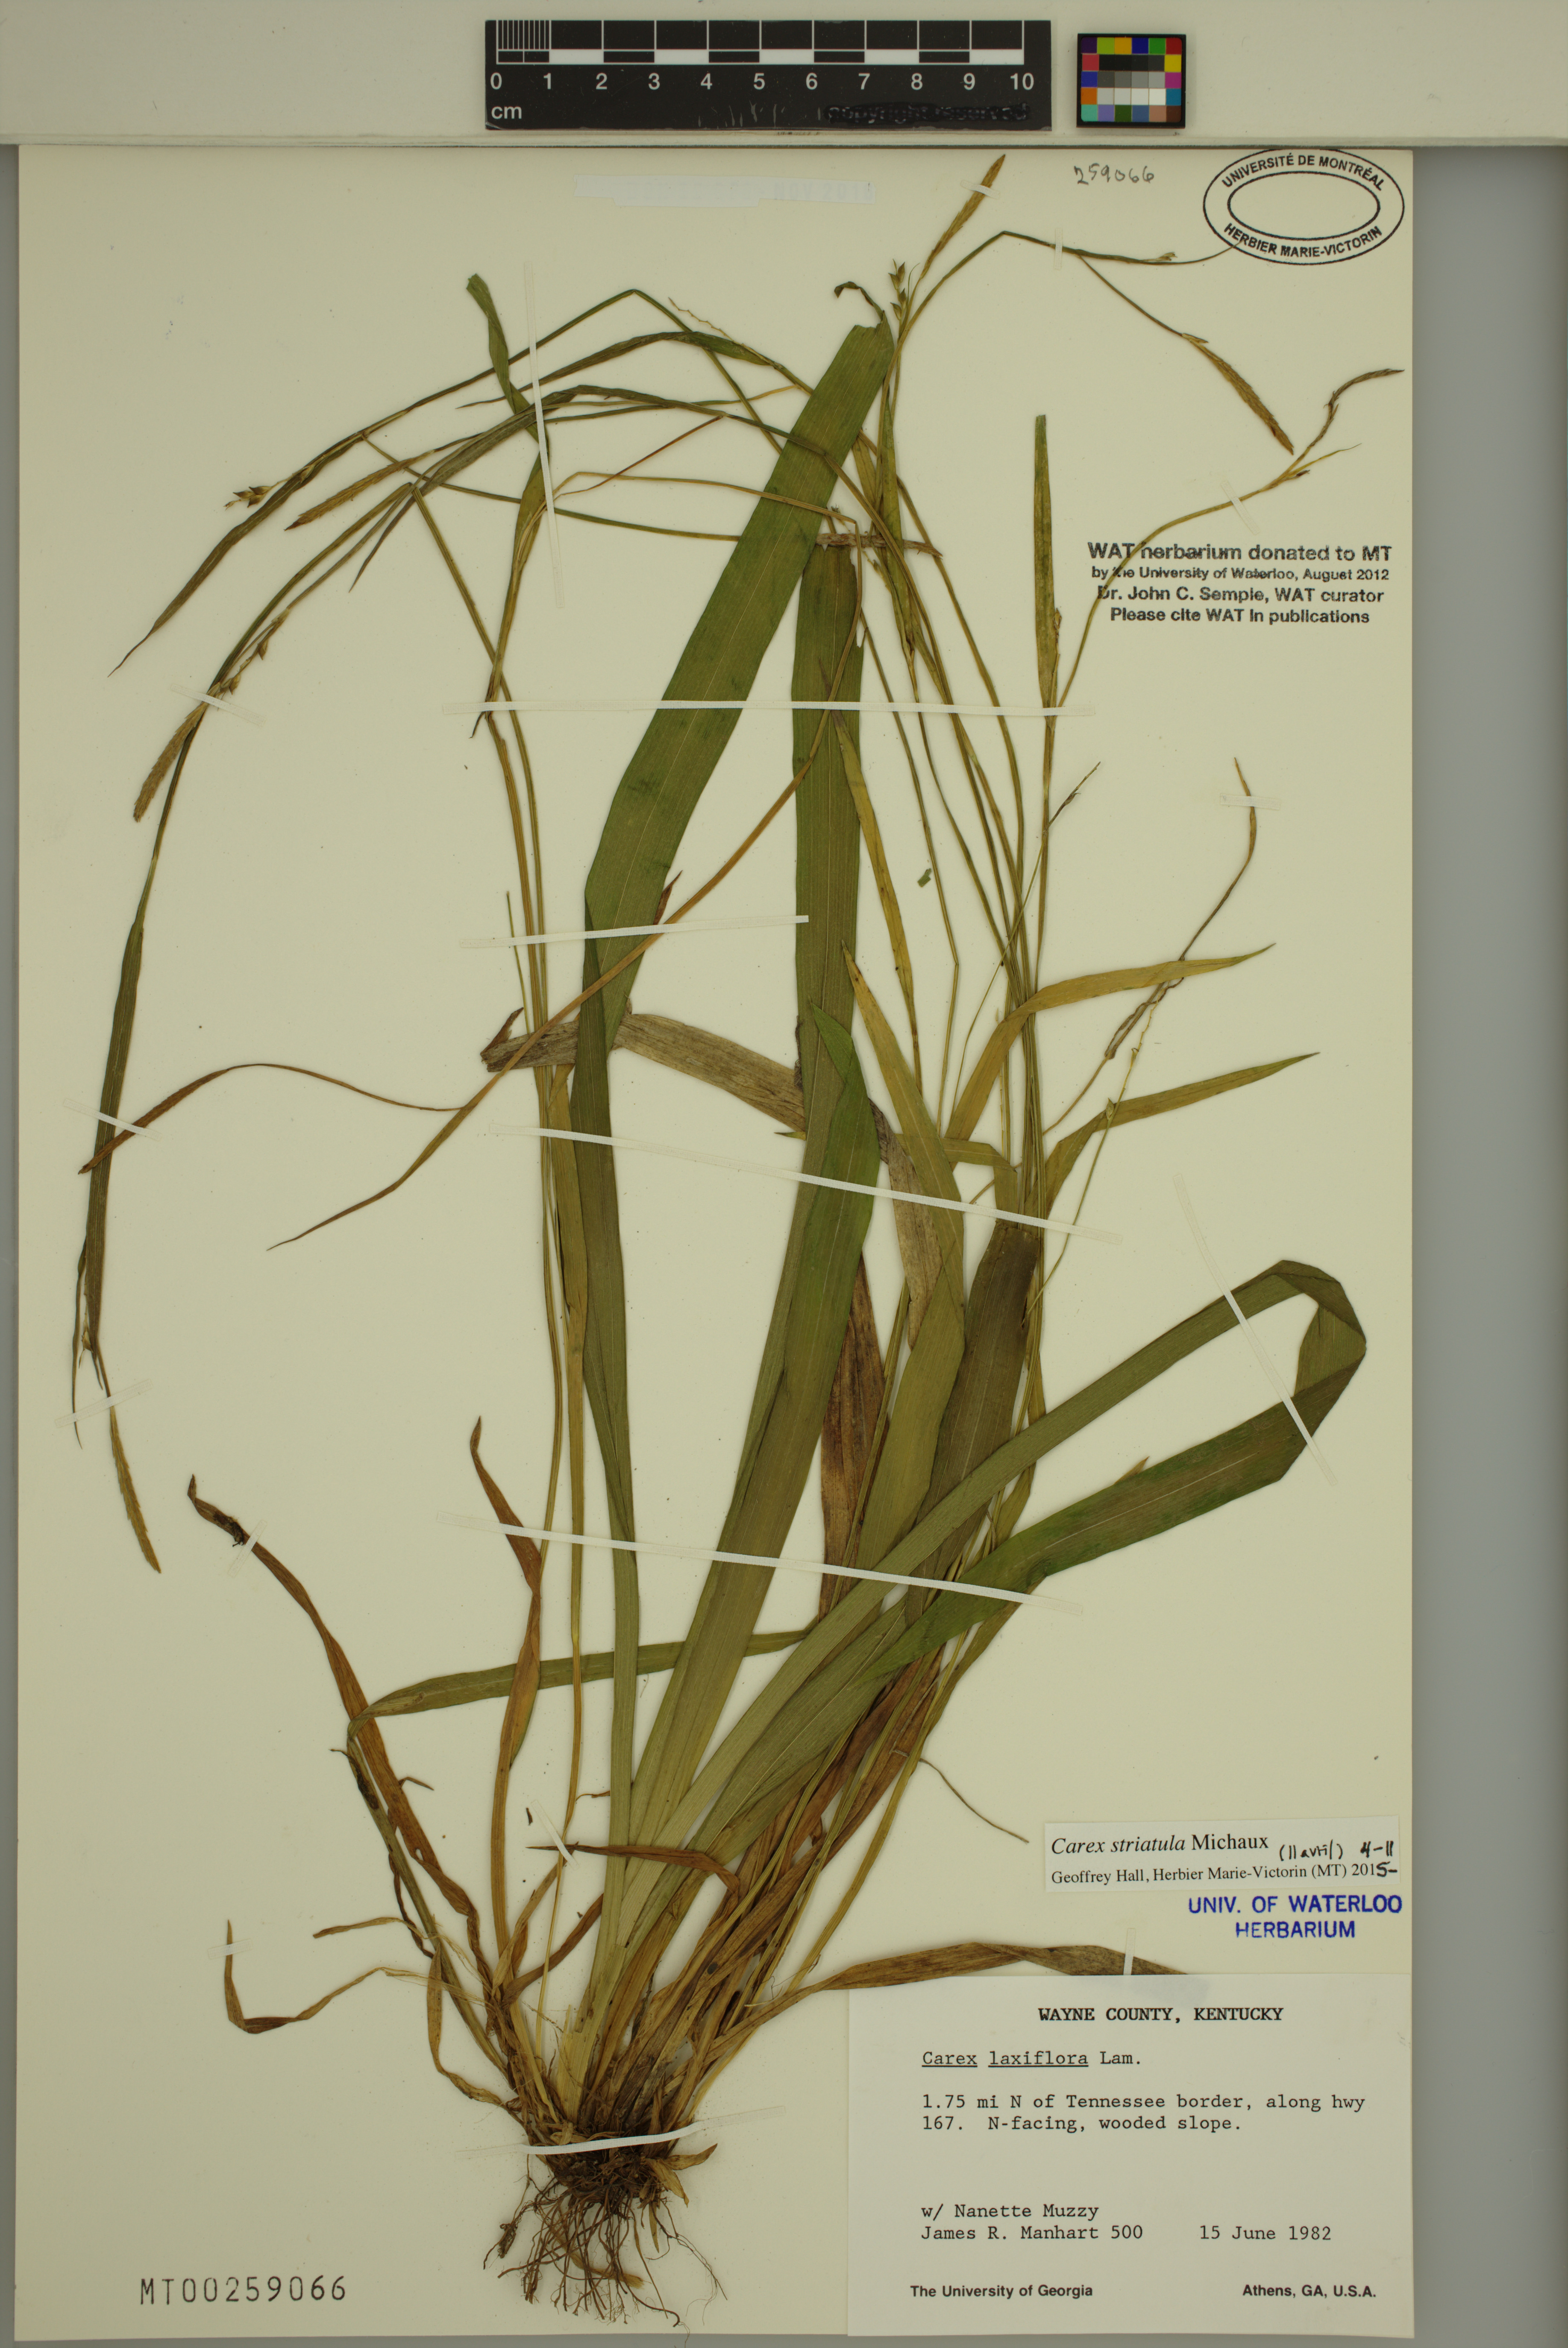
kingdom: Plantae
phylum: Tracheophyta
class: Liliopsida
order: Poales
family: Cyperaceae
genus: Carex
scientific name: Carex striatula
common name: Lined sedge
